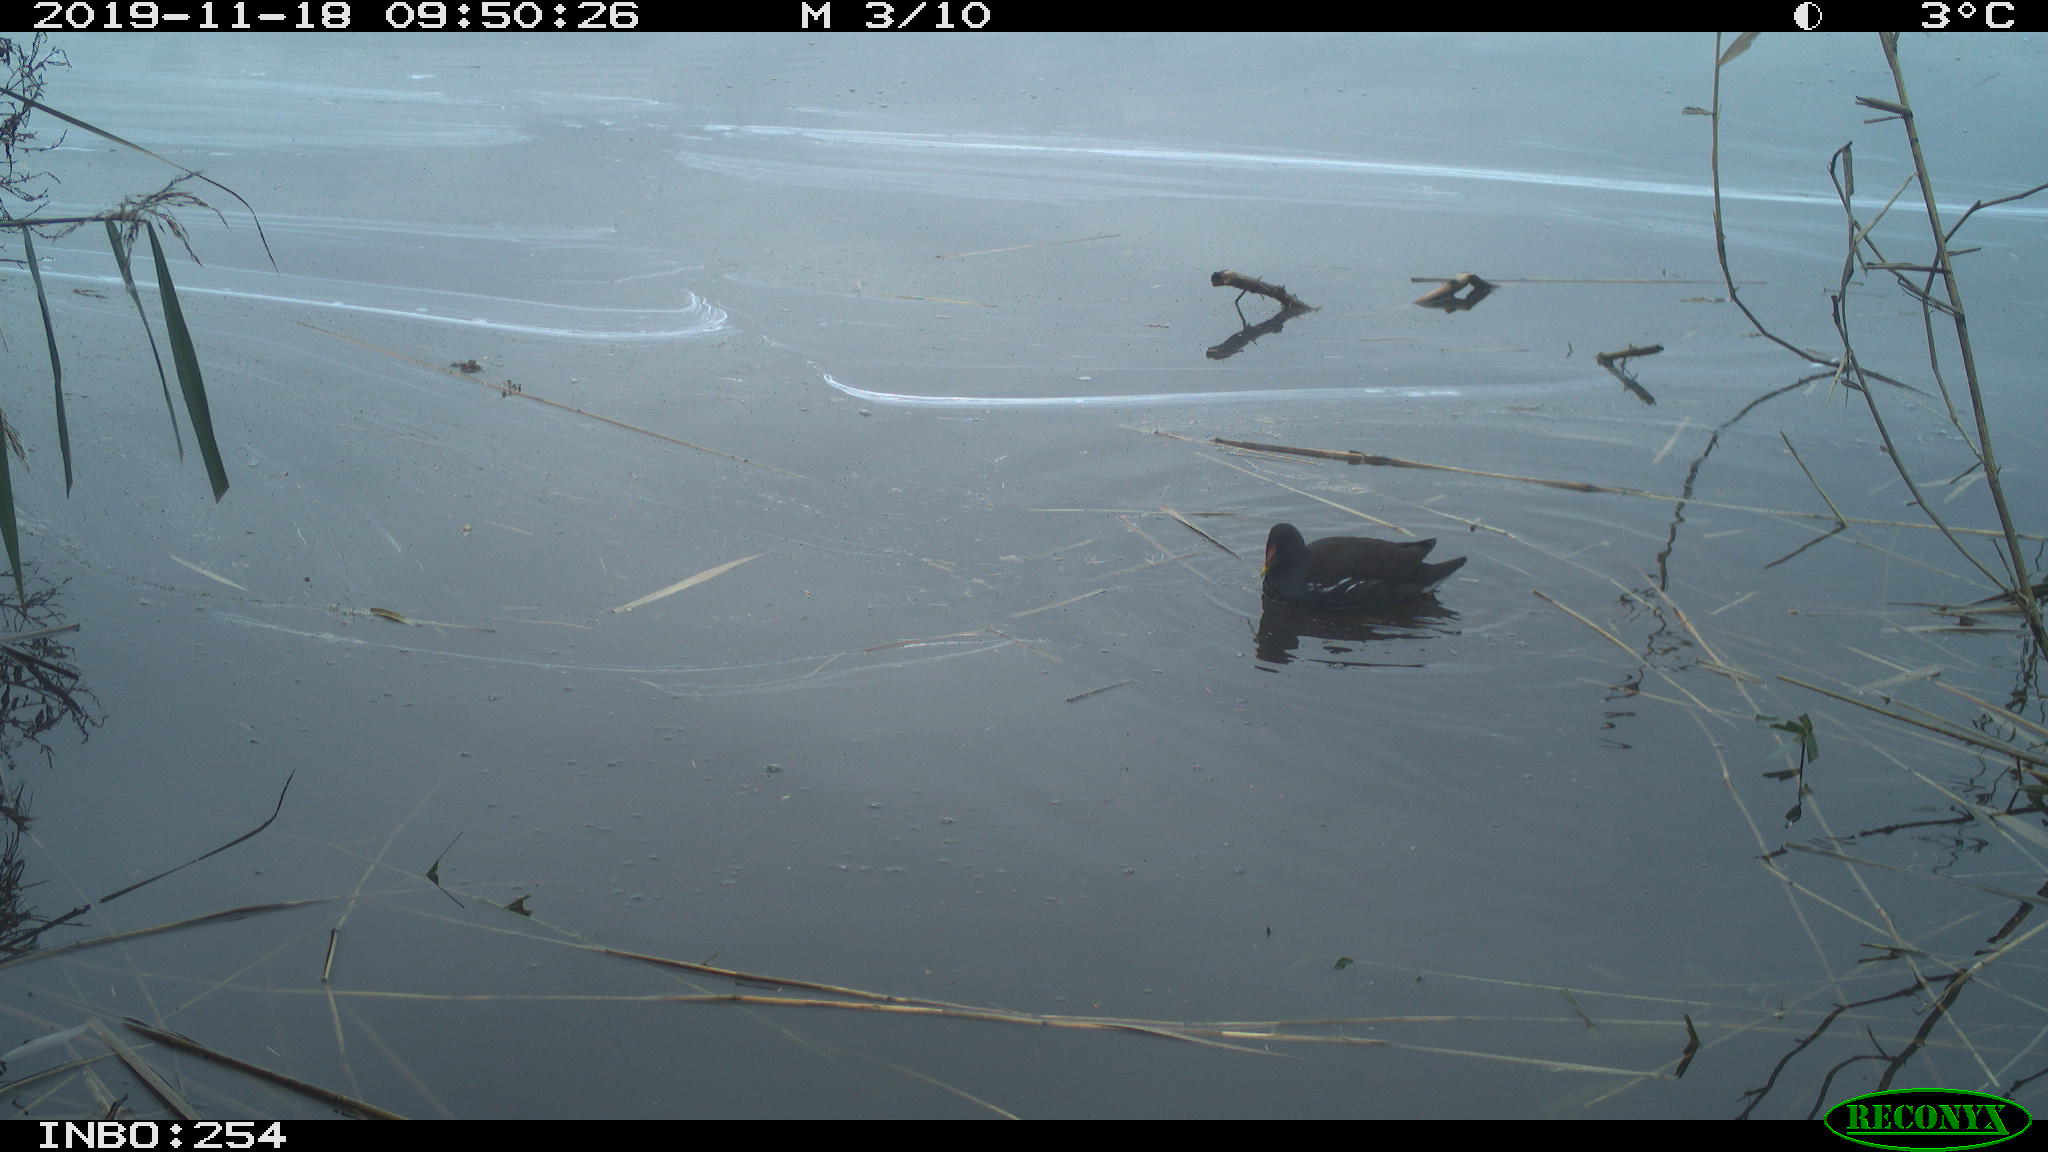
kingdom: Animalia
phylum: Chordata
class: Aves
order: Gruiformes
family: Rallidae
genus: Gallinula
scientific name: Gallinula chloropus
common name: Common moorhen
